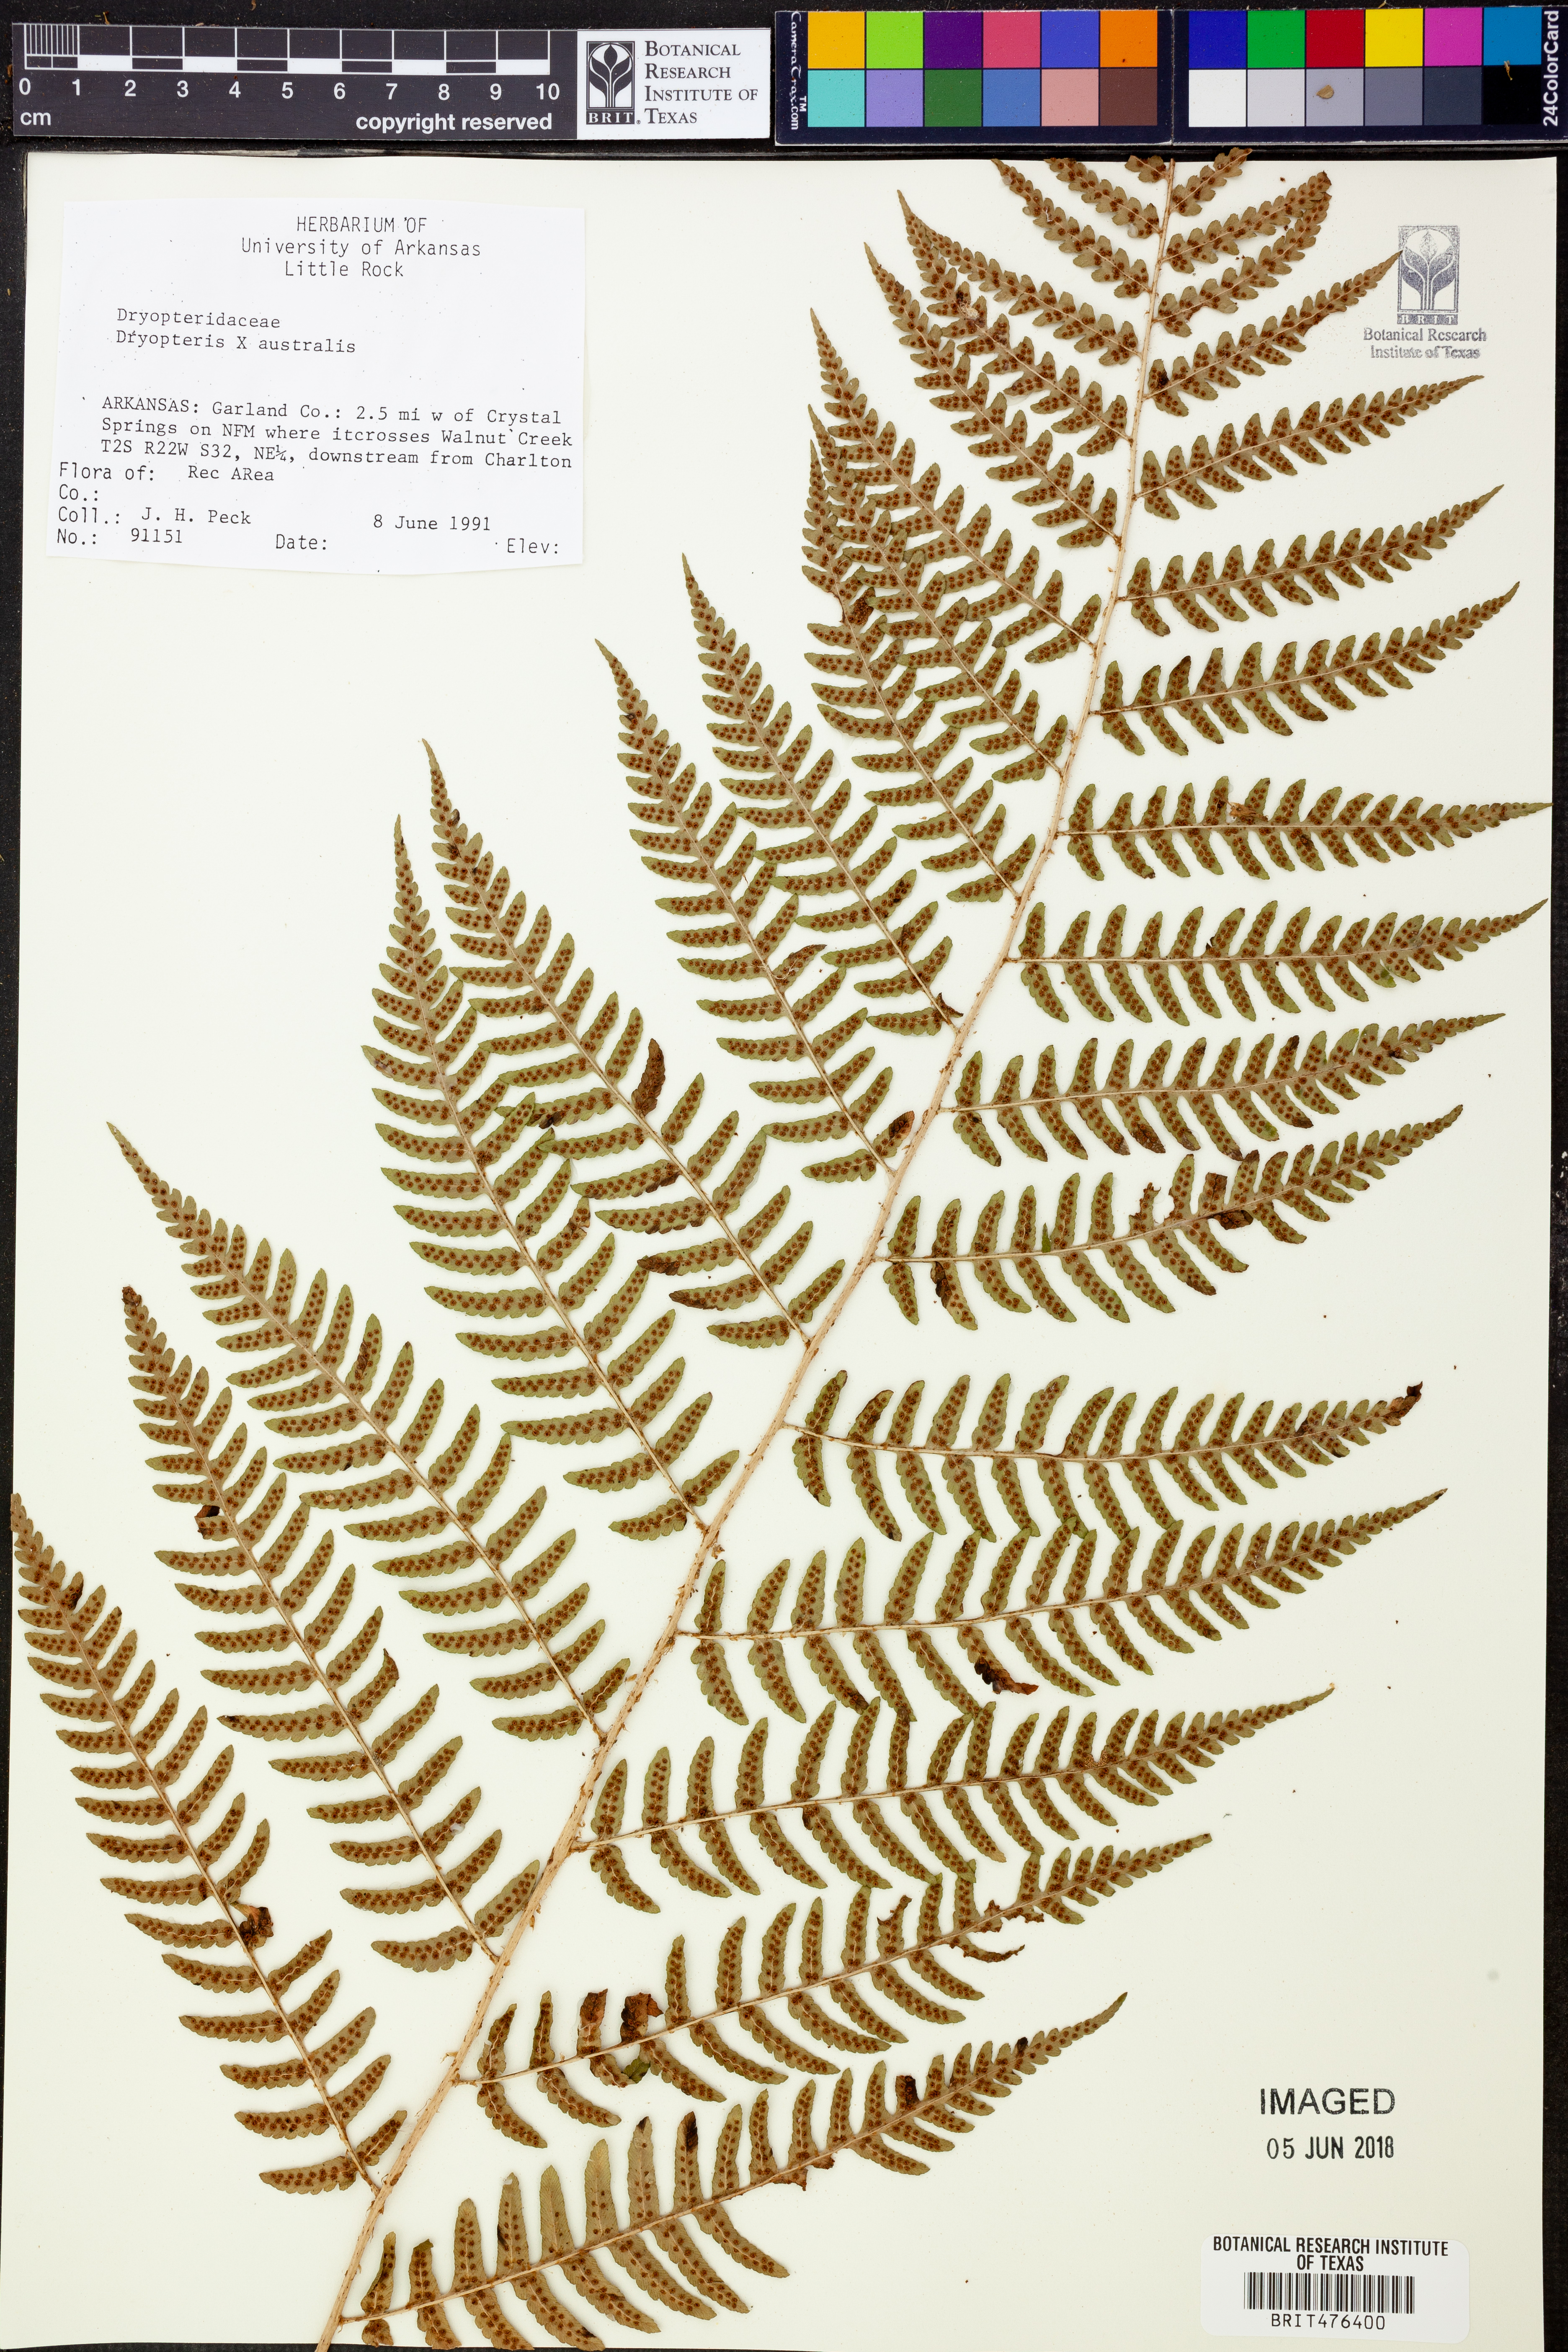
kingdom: Plantae
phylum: Tracheophyta
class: Polypodiopsida
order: Polypodiales
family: Dryopteridaceae
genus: Dryopteris
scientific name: Dryopteris
